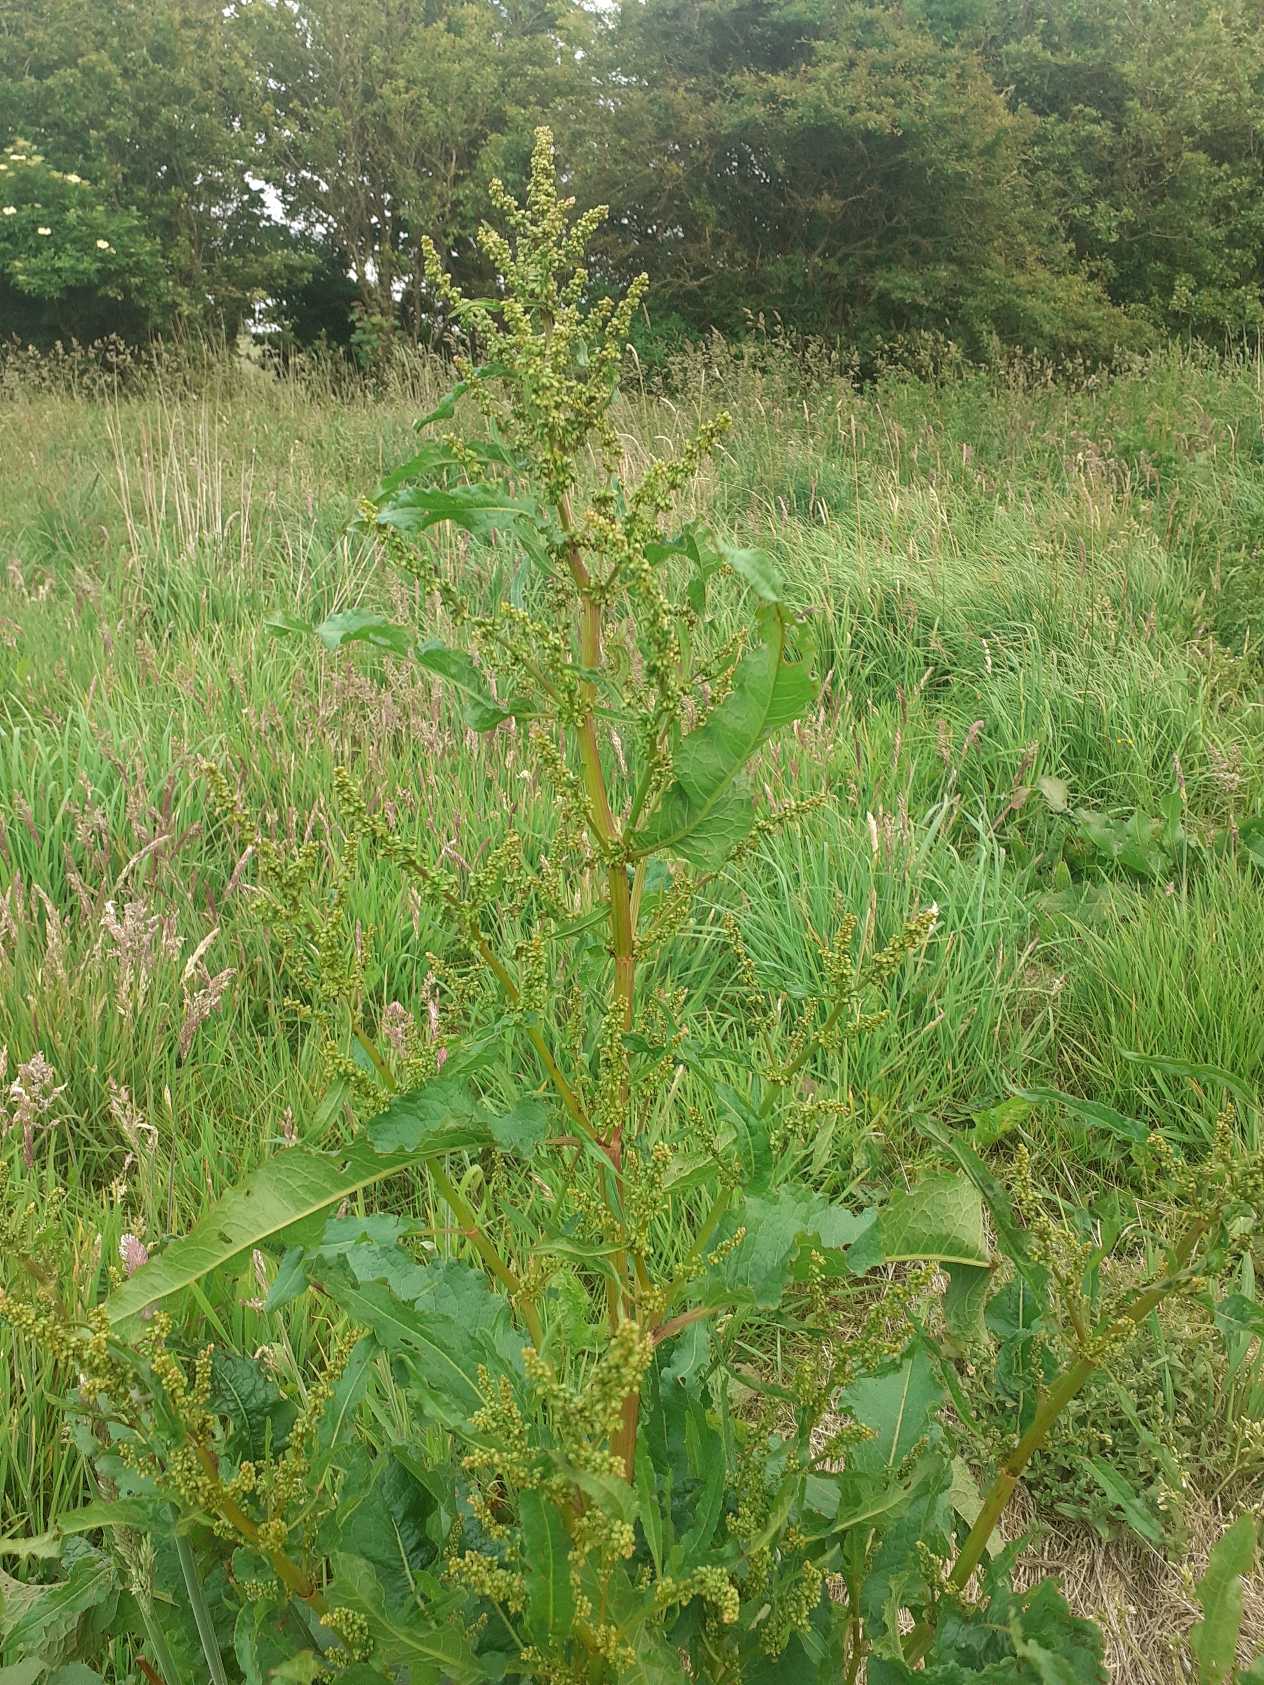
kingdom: Plantae
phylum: Tracheophyta
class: Magnoliopsida
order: Caryophyllales
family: Polygonaceae
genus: Rumex
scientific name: Rumex obtusifolius
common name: Butbladet skræppe
